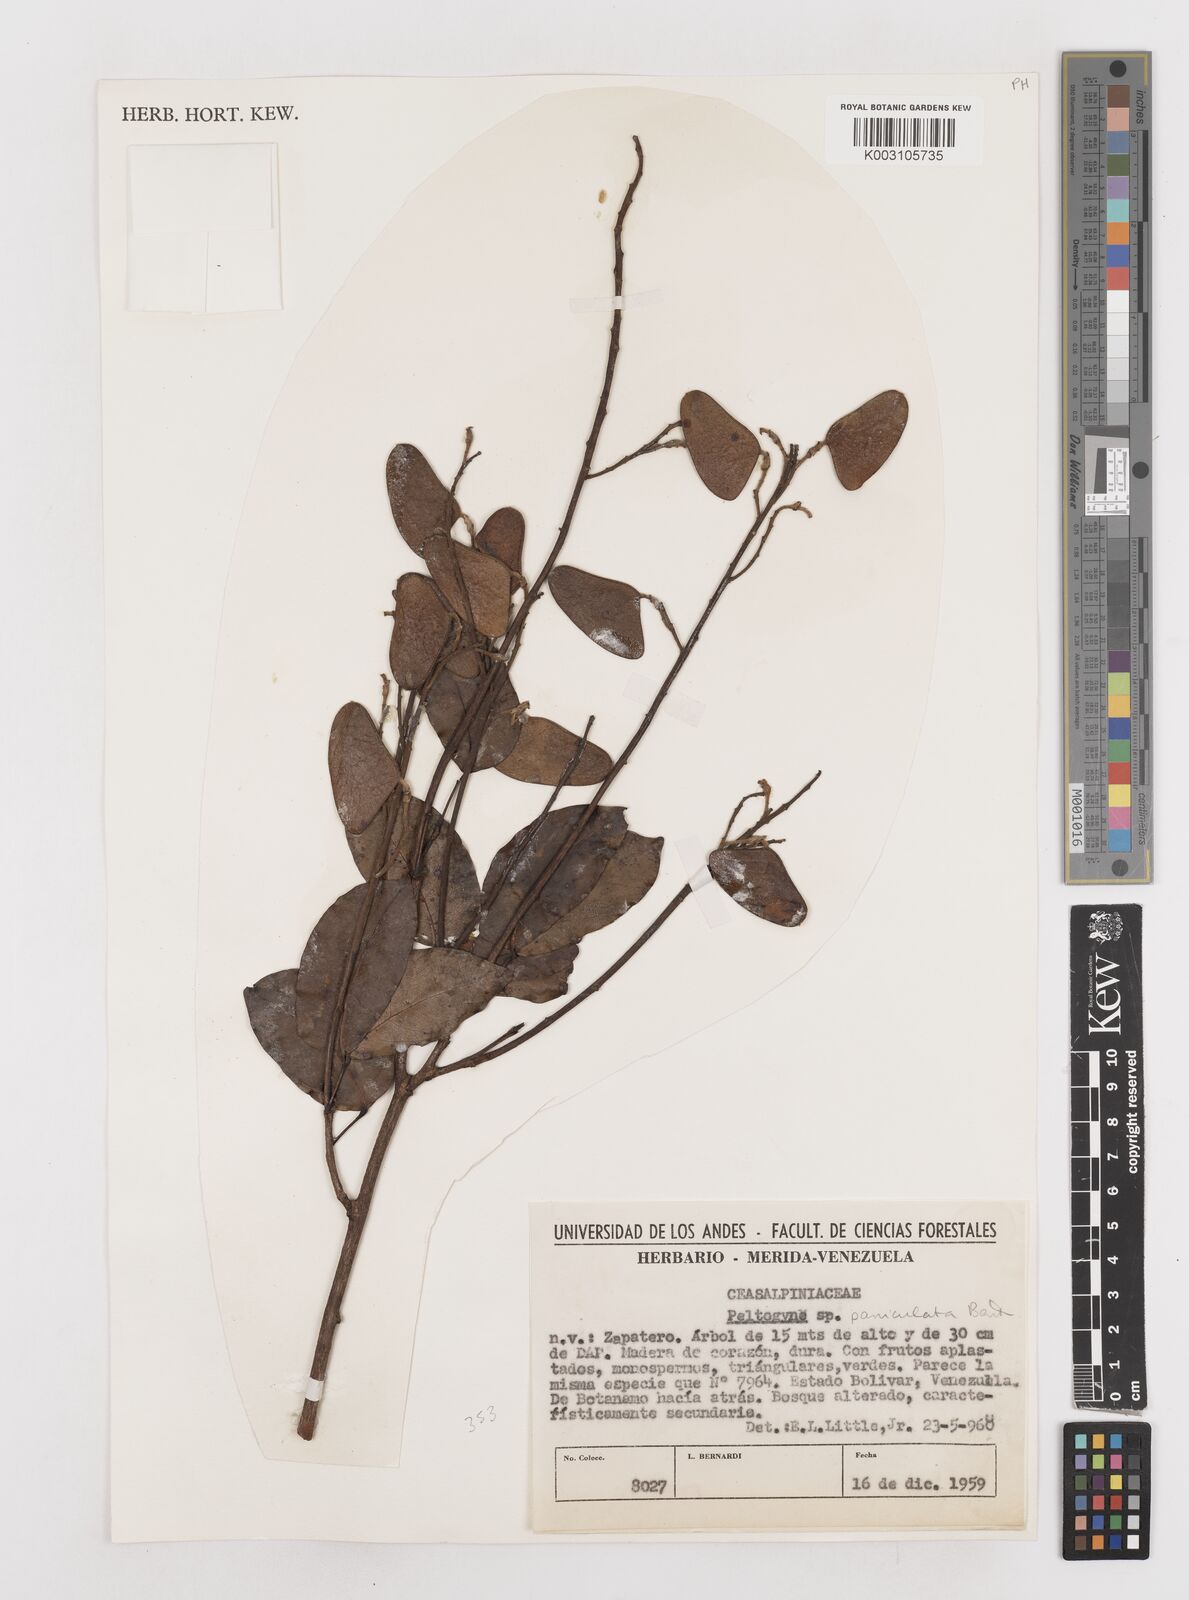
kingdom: Plantae
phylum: Tracheophyta
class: Magnoliopsida
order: Fabales
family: Fabaceae
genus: Peltogyne
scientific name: Peltogyne paniculata
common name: Purpleheart
